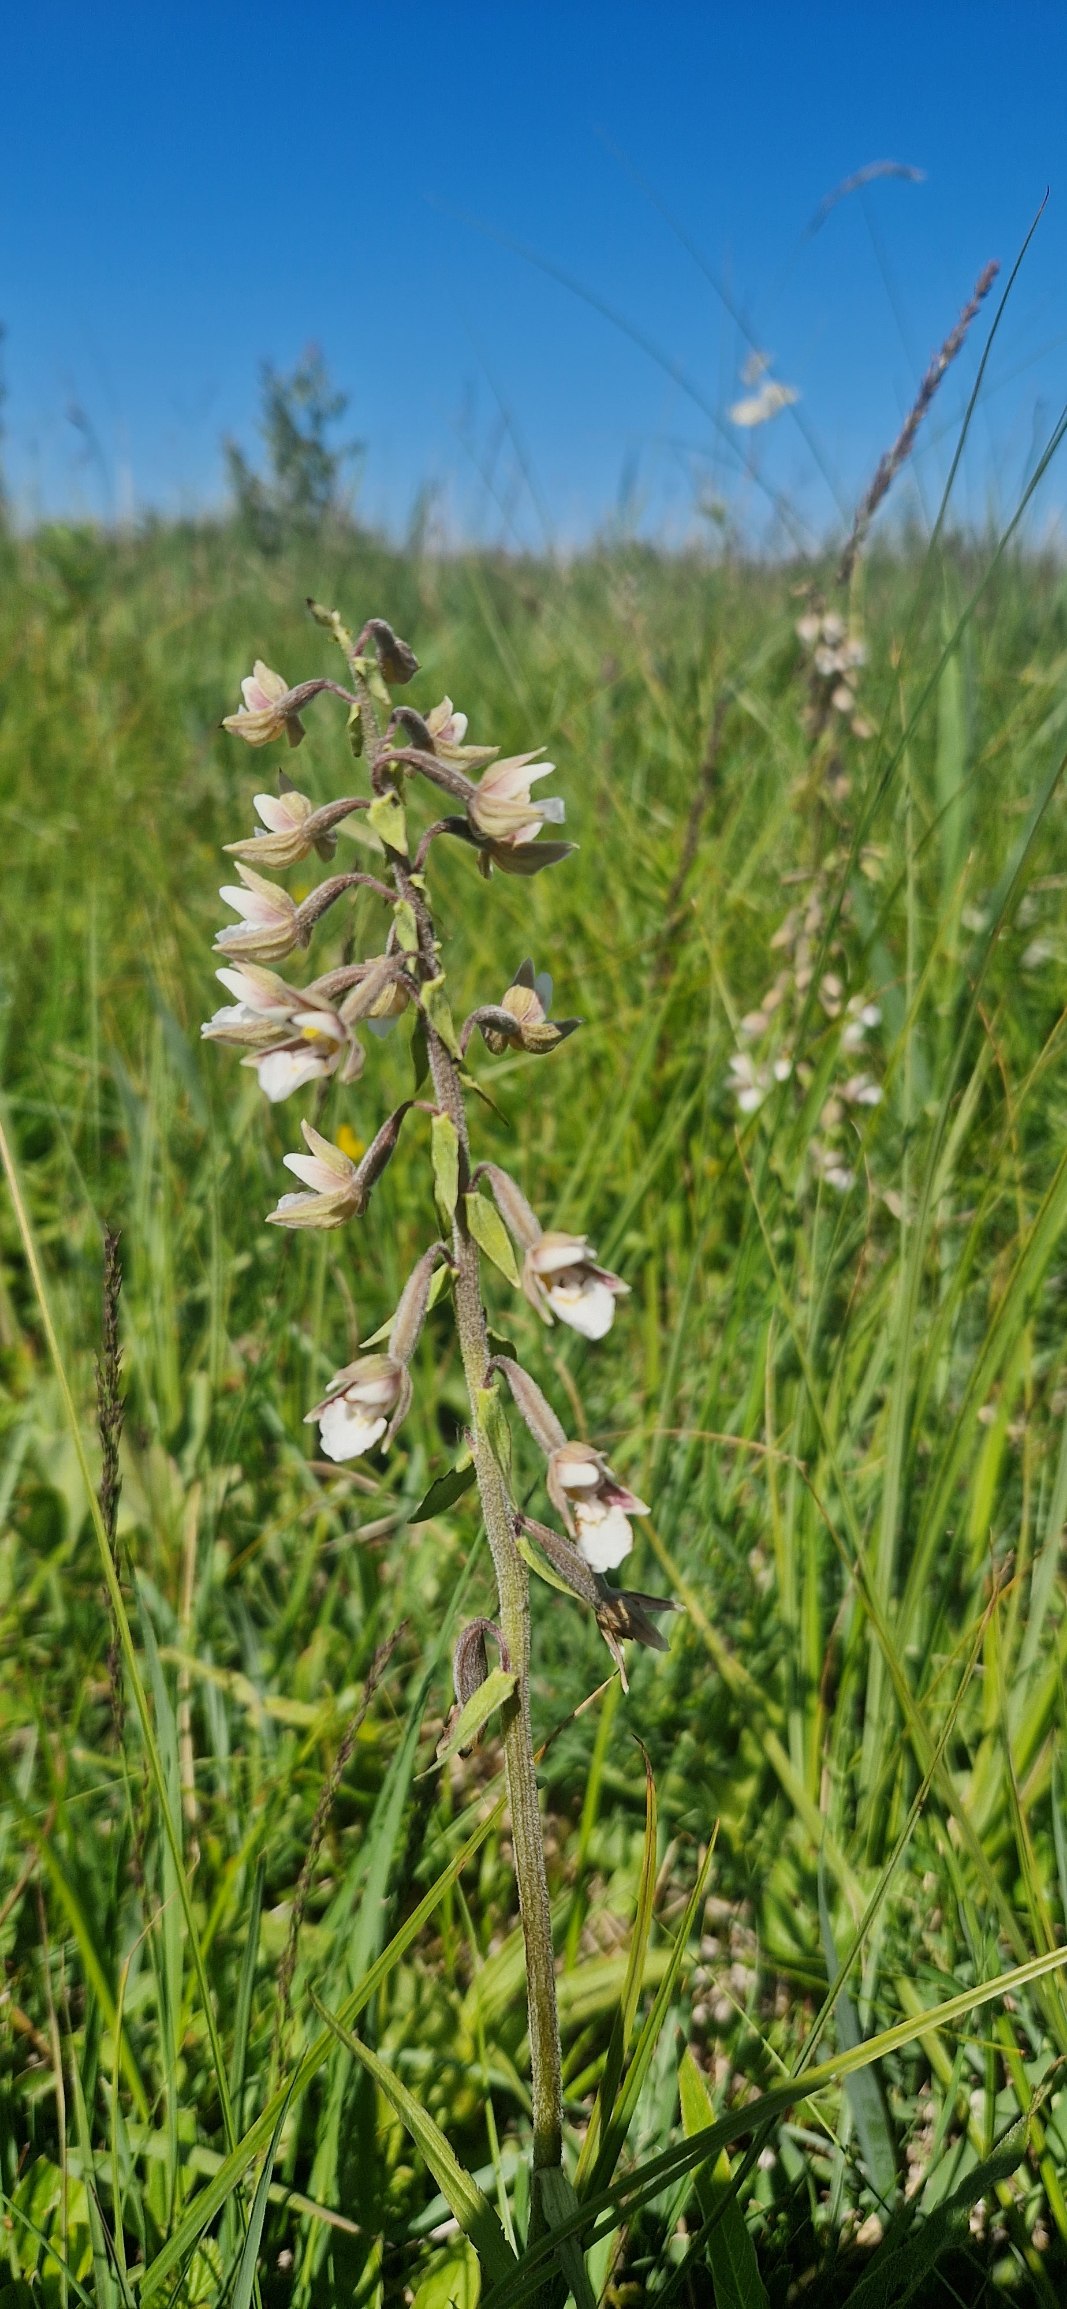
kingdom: Plantae
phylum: Tracheophyta
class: Liliopsida
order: Asparagales
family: Orchidaceae
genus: Epipactis
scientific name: Epipactis palustris
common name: Sump-hullæbe
